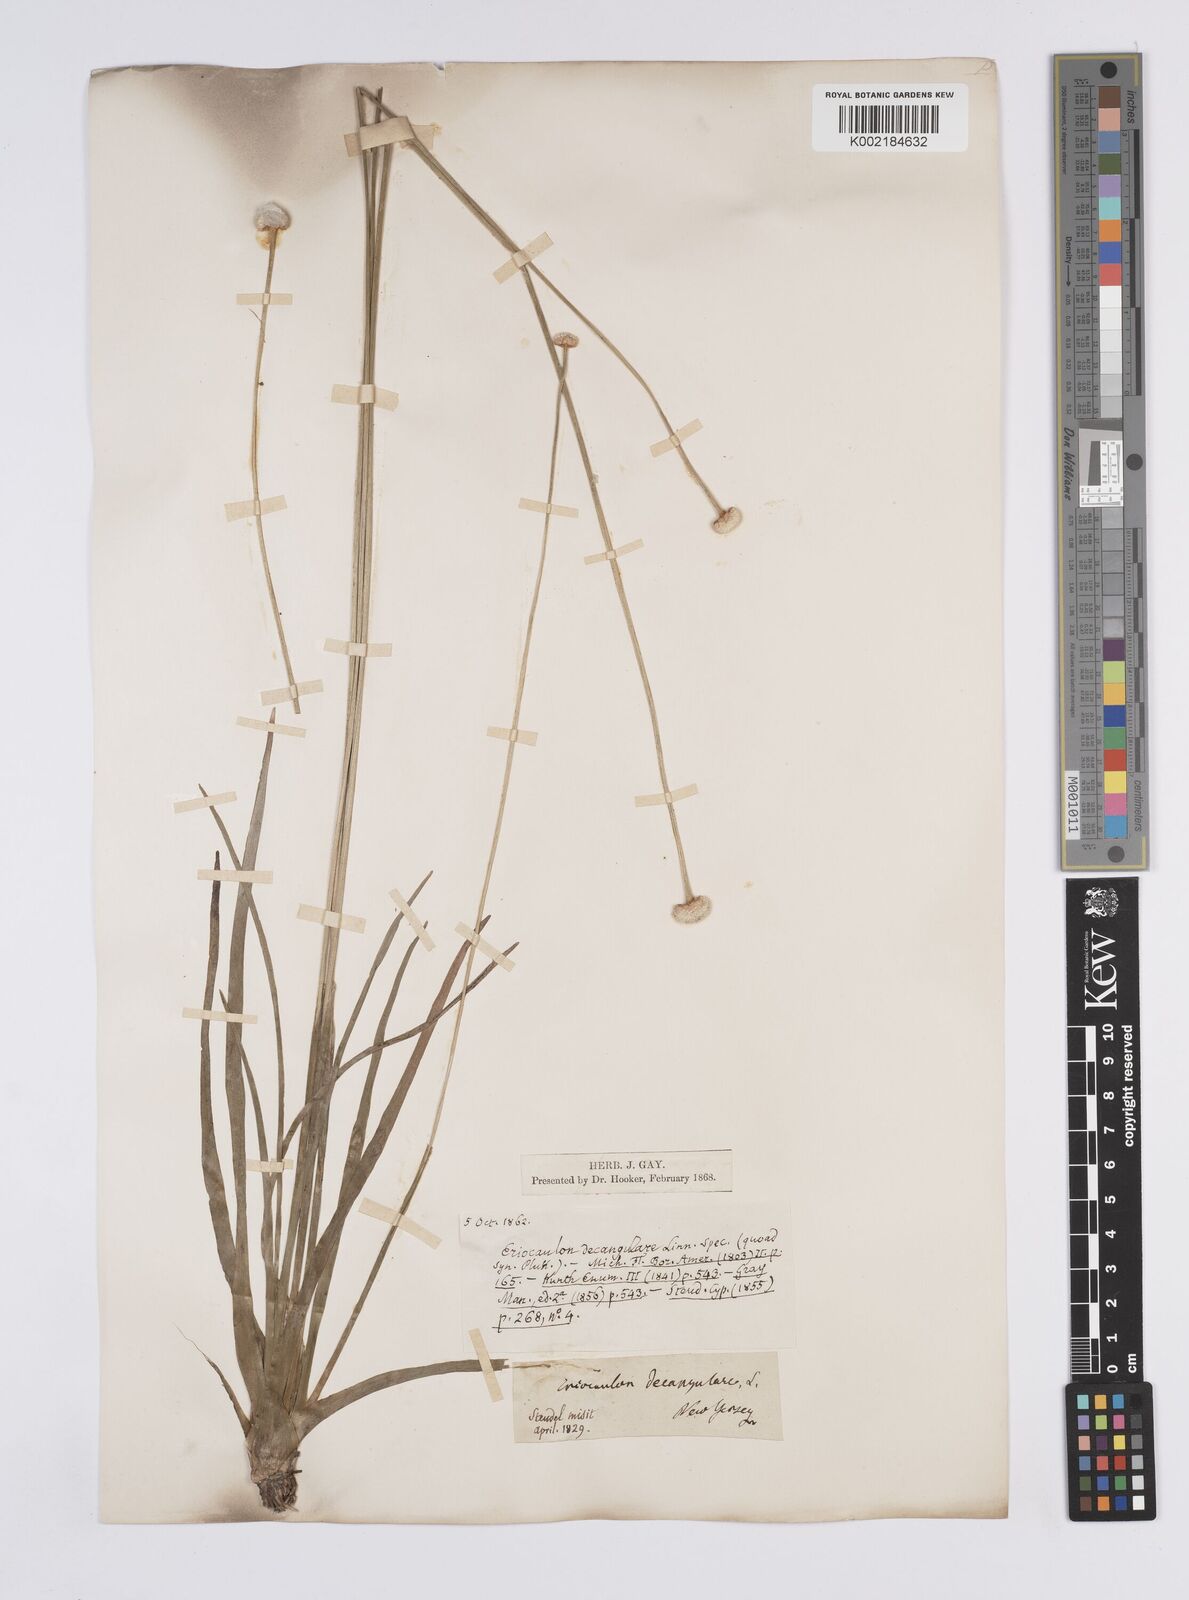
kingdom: Plantae
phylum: Tracheophyta
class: Liliopsida
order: Poales
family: Eriocaulaceae
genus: Eriocaulon
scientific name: Eriocaulon decangulare
